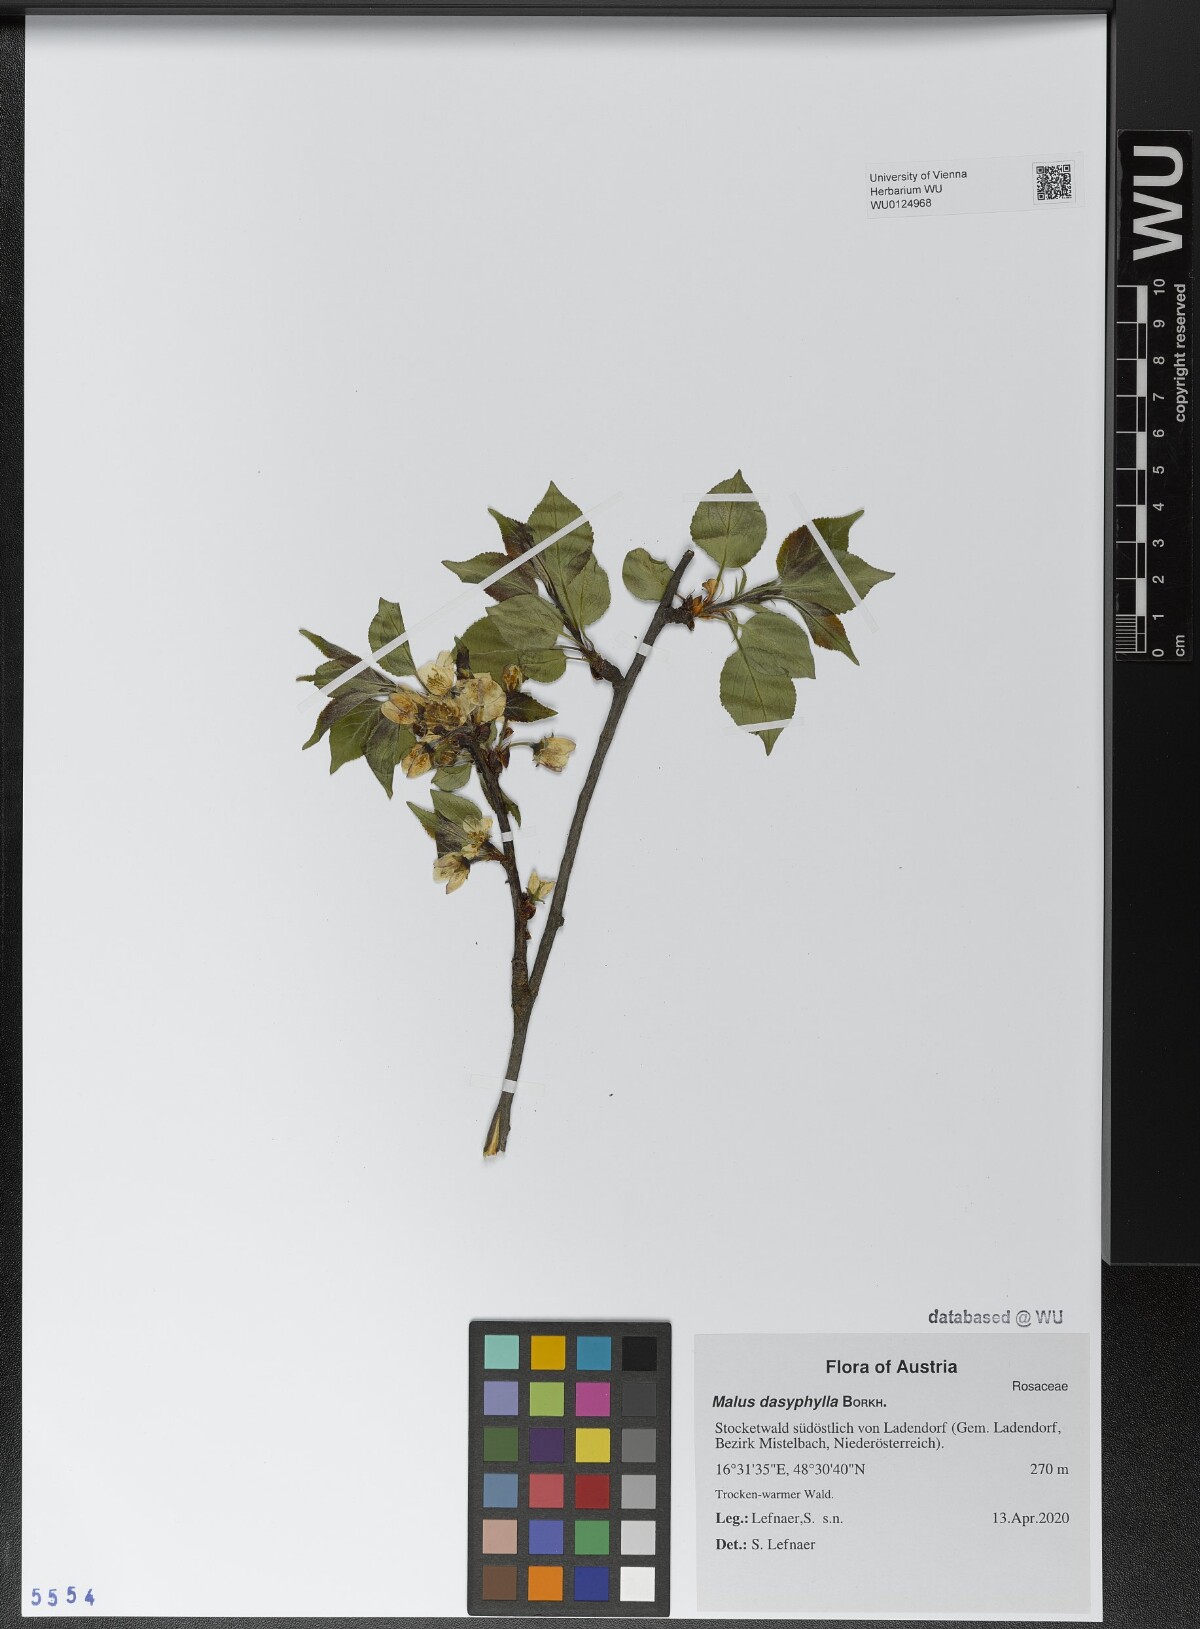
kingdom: Plantae
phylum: Tracheophyta
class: Magnoliopsida
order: Rosales
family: Rosaceae
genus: Malus
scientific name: Malus dasyphylla
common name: Paradise apple
